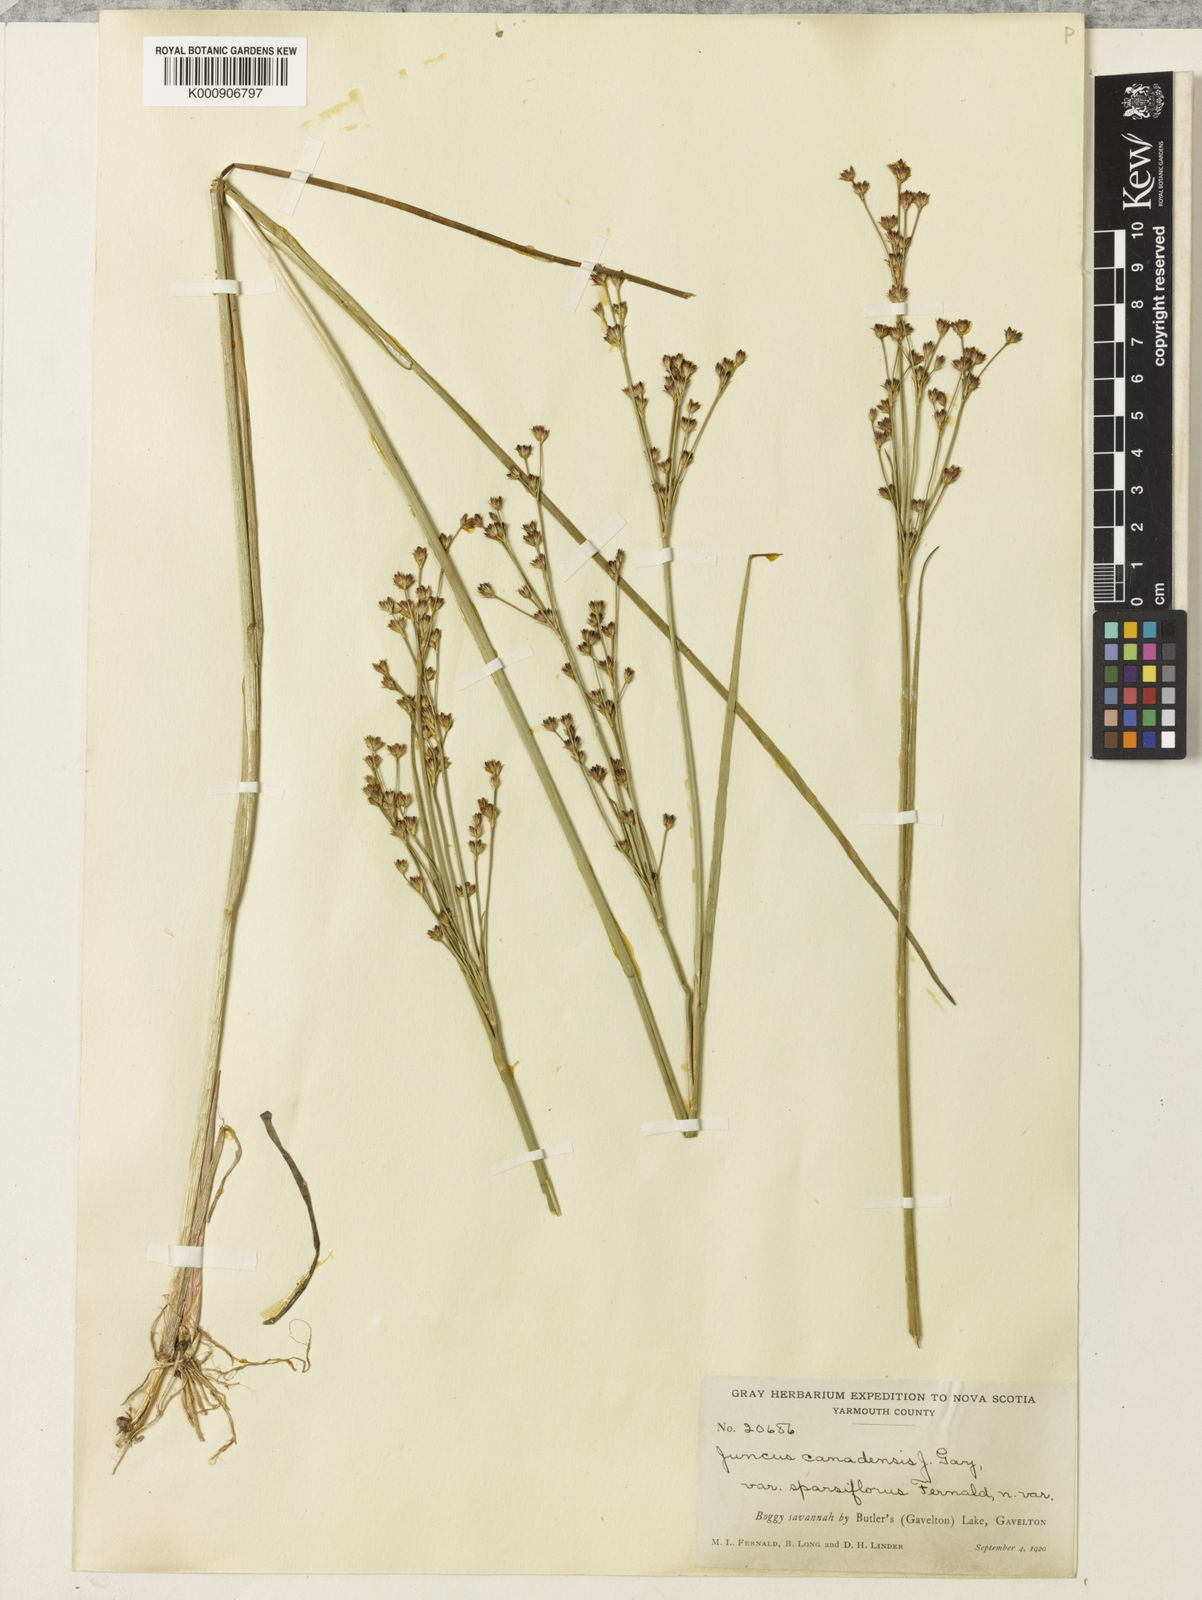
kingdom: Plantae
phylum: Tracheophyta
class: Liliopsida
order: Poales
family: Juncaceae
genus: Juncus
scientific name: Juncus
